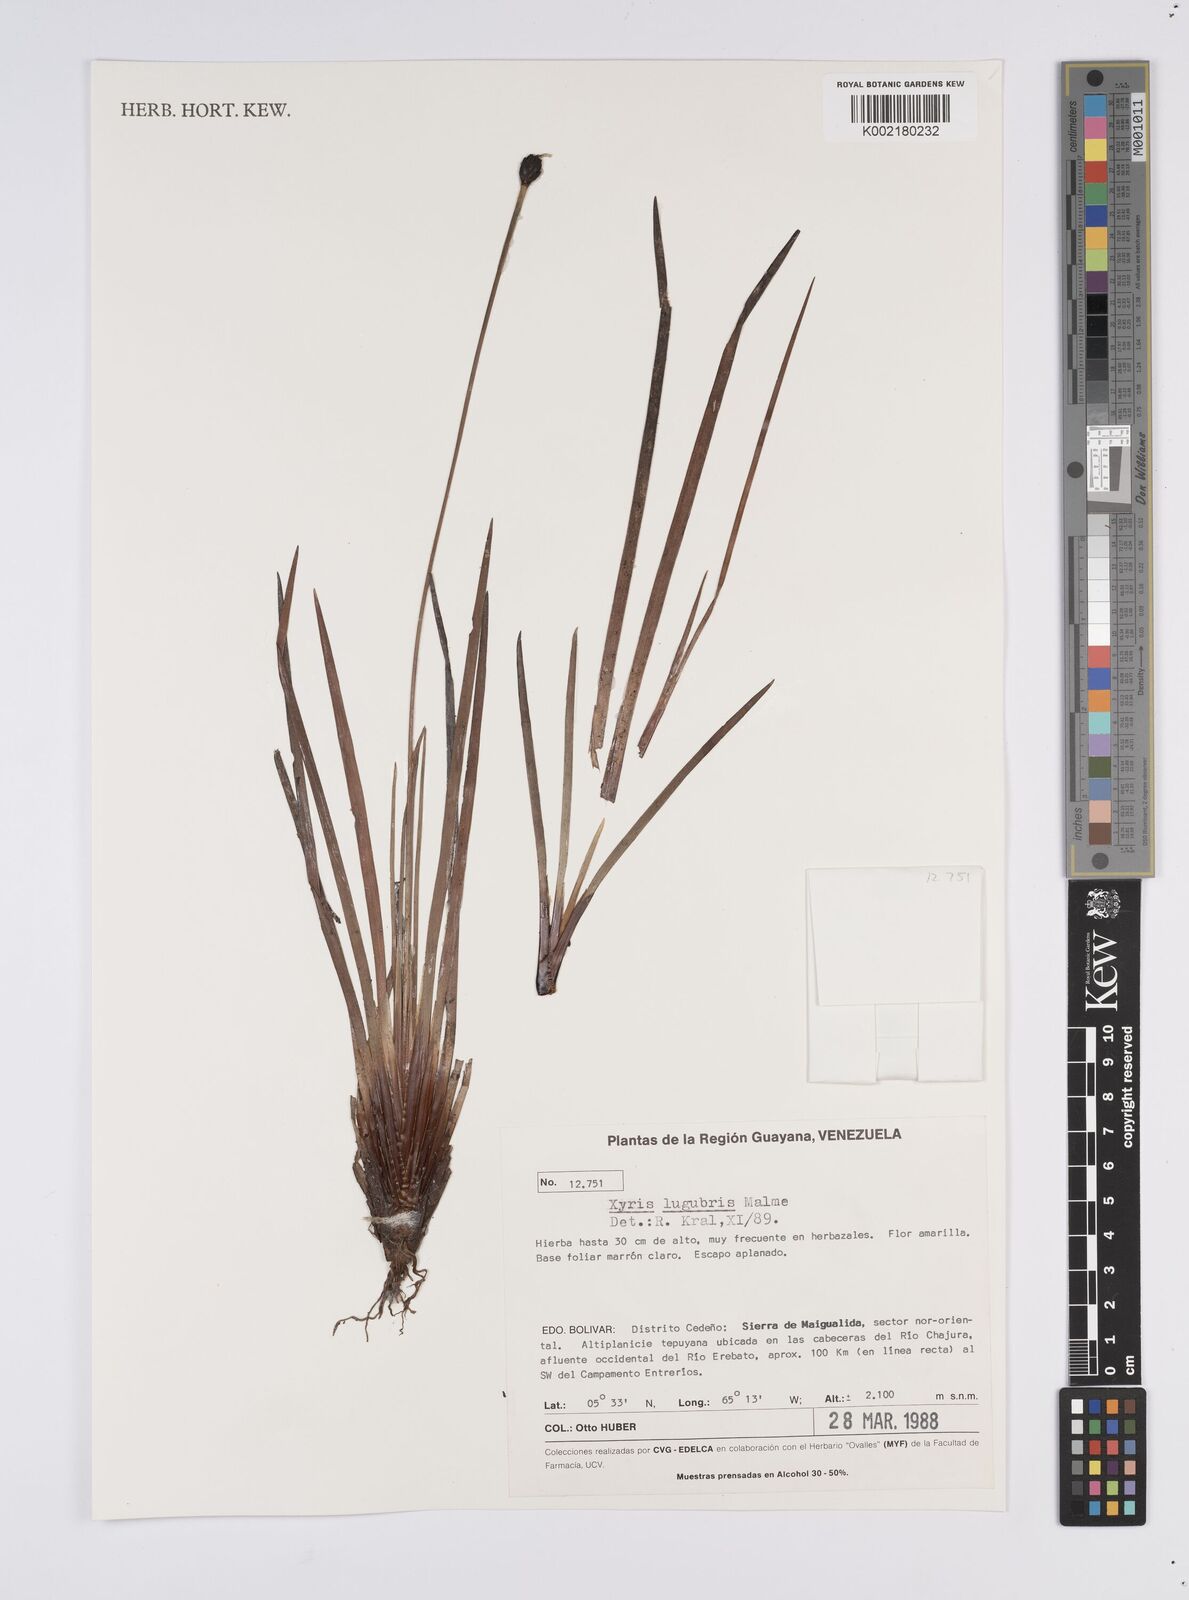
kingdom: Plantae
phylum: Tracheophyta
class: Liliopsida
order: Poales
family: Xyridaceae
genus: Xyris
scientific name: Xyris lugubris
